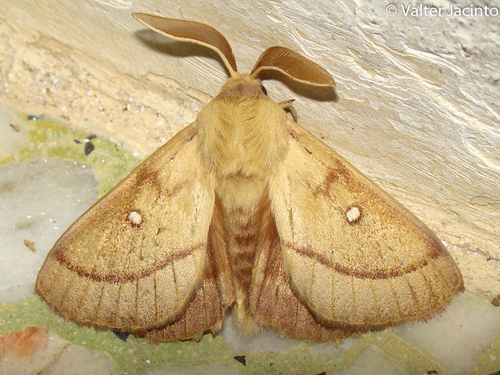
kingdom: Animalia
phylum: Arthropoda
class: Insecta
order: Lepidoptera
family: Lasiocampidae
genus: Lasiocampa
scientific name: Lasiocampa trifolii
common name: Grass eggar
